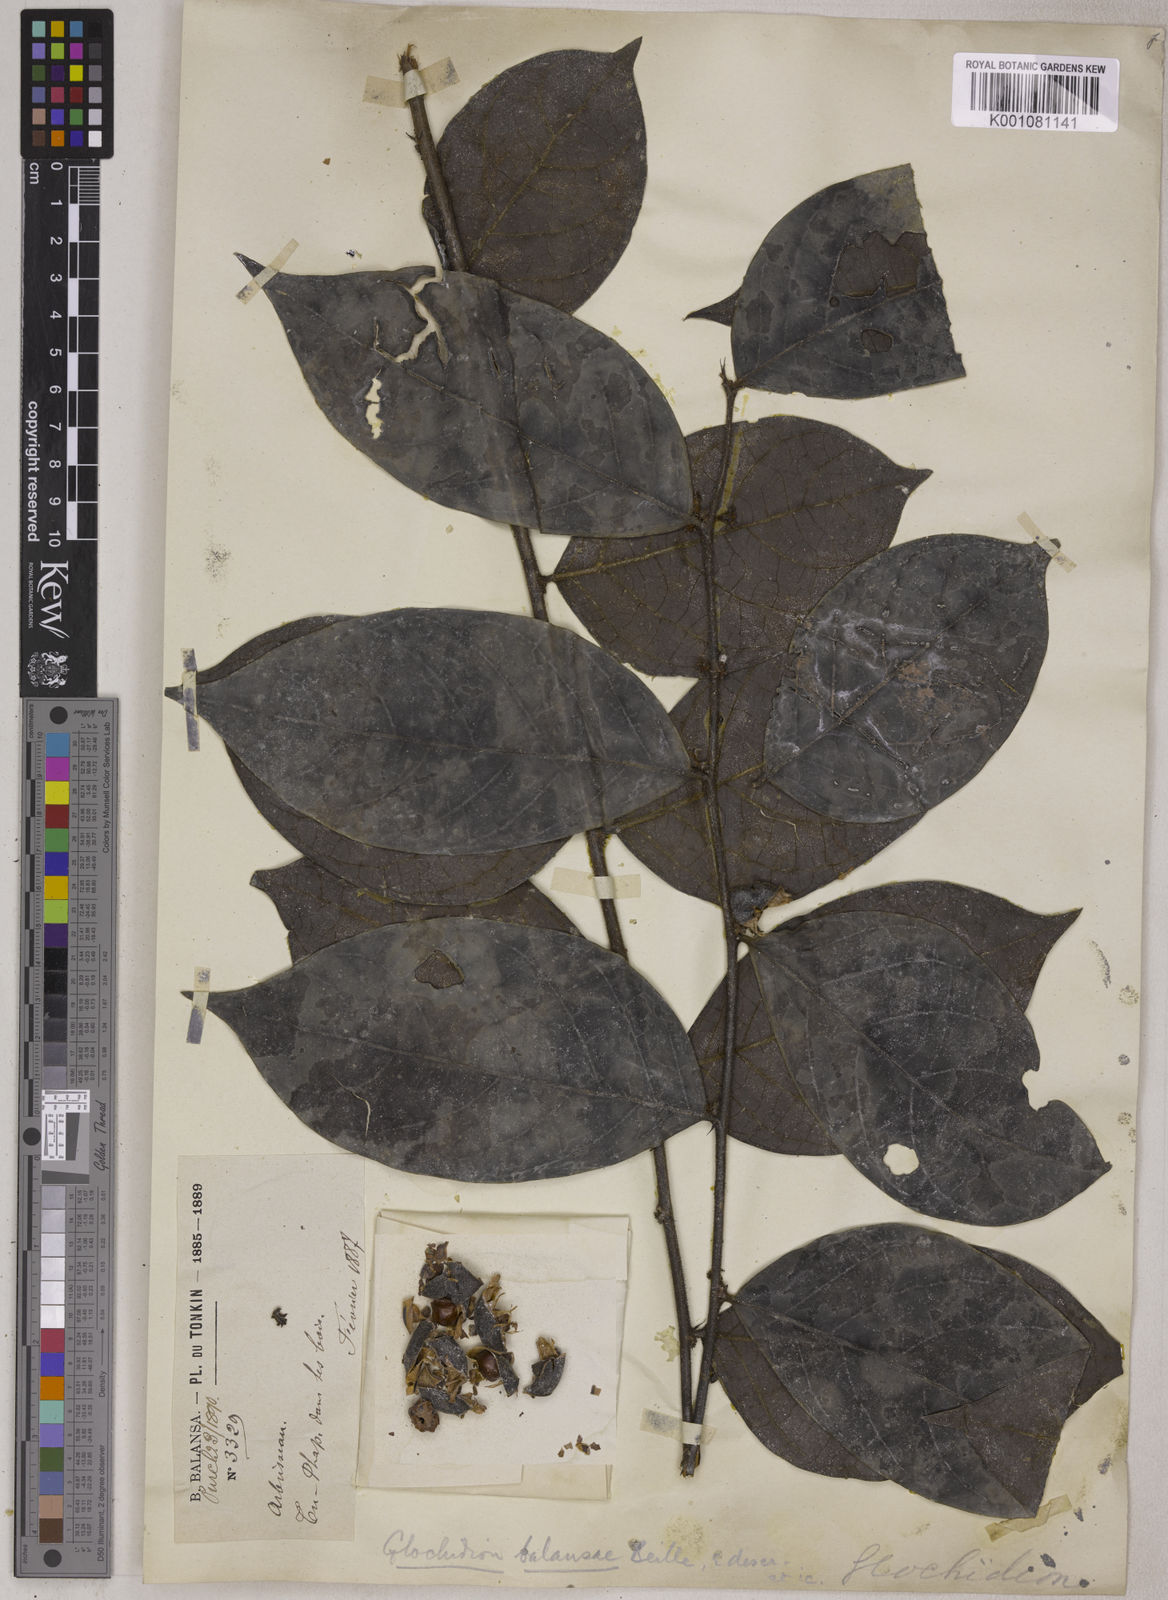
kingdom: Plantae
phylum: Tracheophyta
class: Magnoliopsida
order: Malpighiales
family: Phyllanthaceae
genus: Glochidion
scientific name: Glochidion balansae
